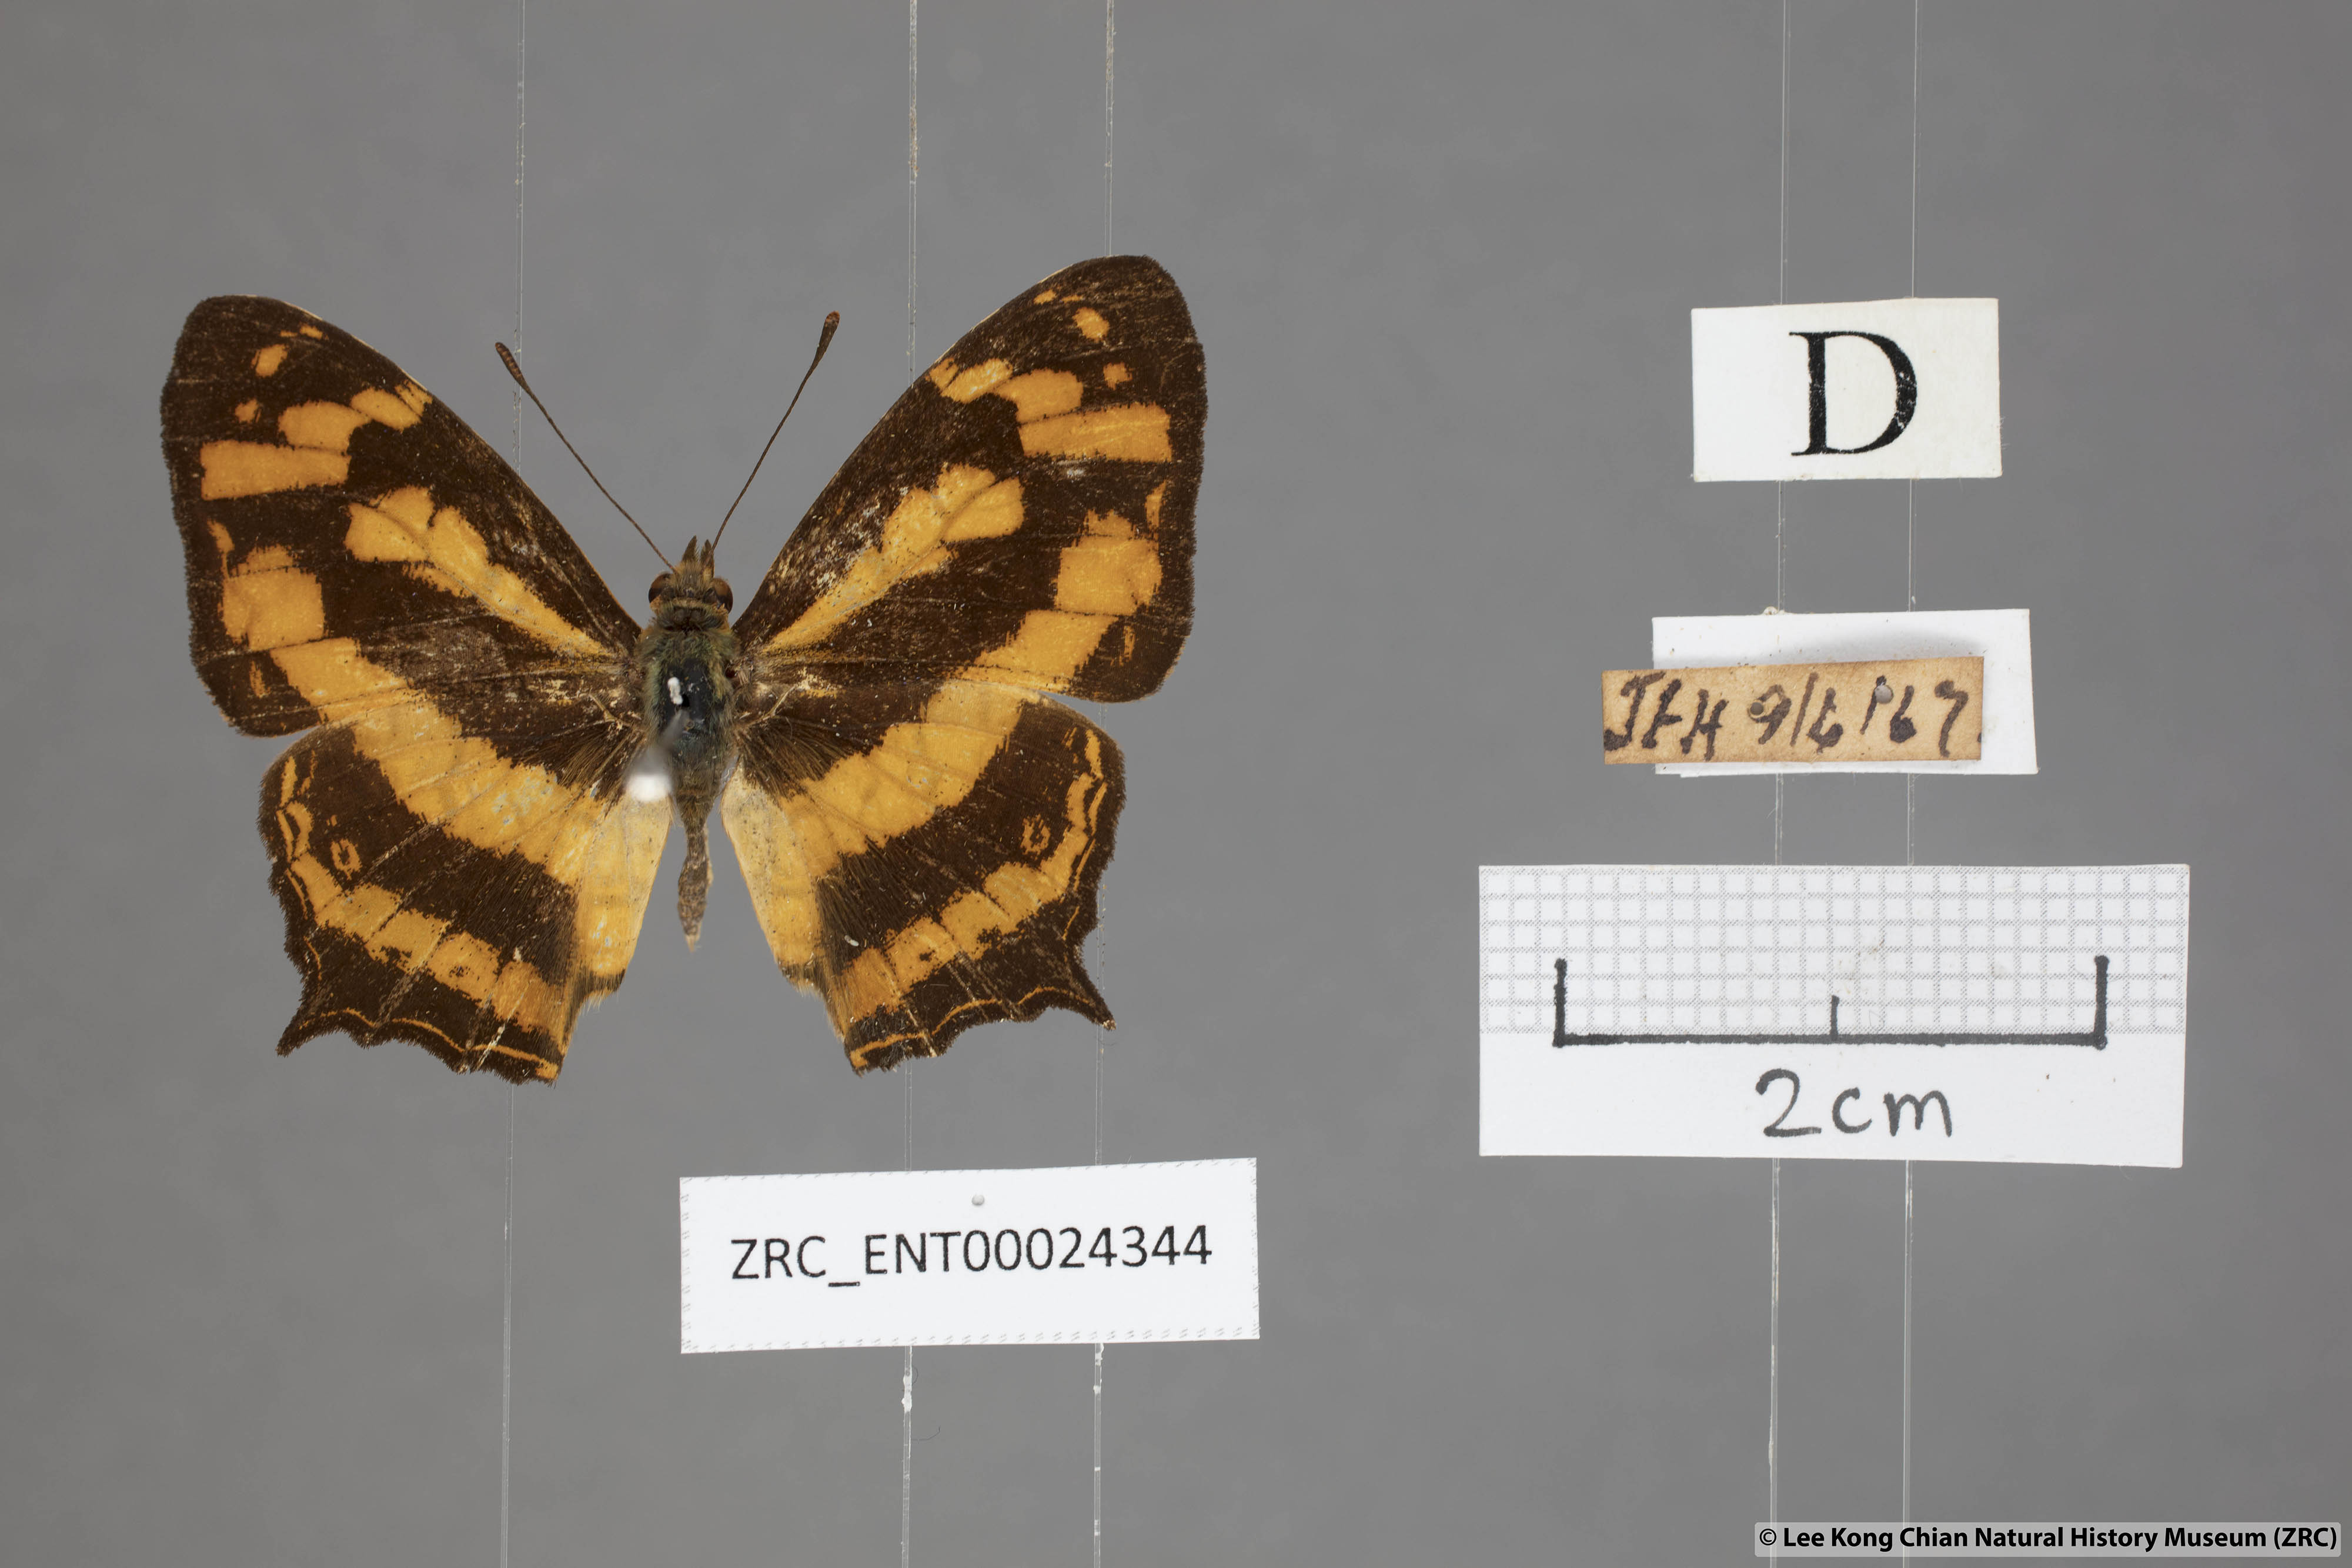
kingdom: Animalia
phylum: Arthropoda
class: Insecta
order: Lepidoptera
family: Nymphalidae
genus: Symbrenthia
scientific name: Symbrenthia hypatia
